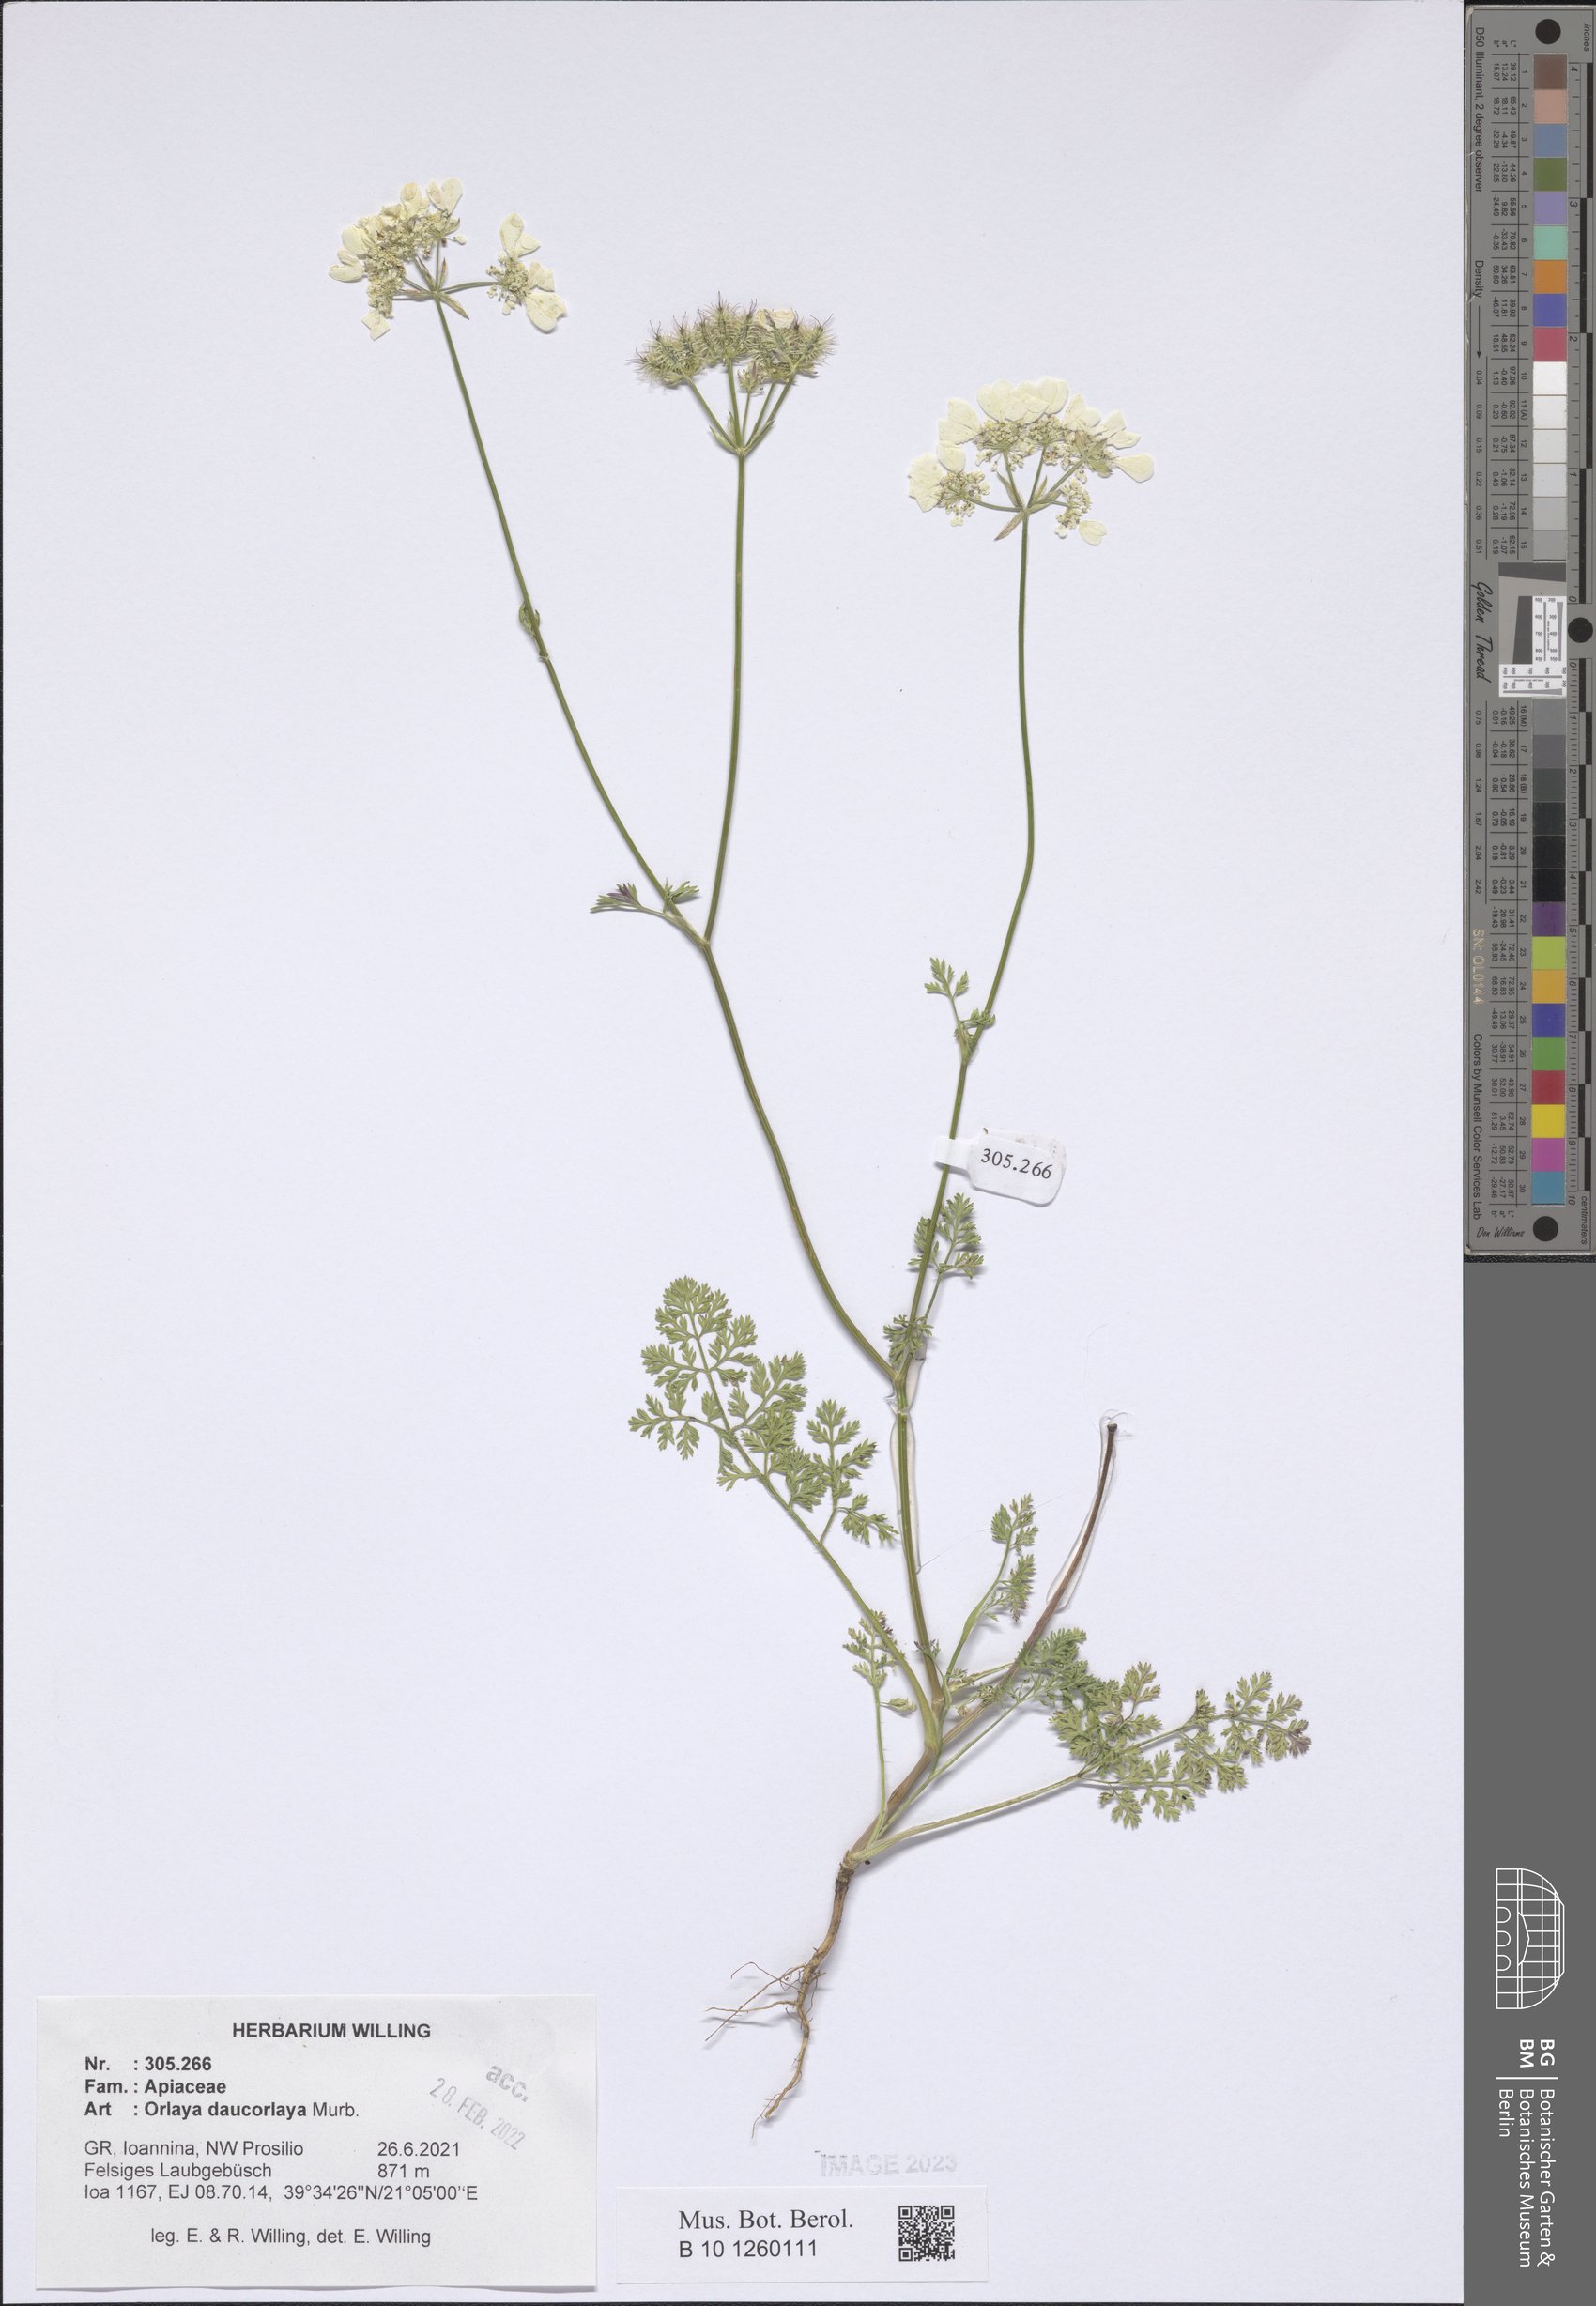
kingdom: Plantae
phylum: Tracheophyta
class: Magnoliopsida
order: Apiales
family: Apiaceae
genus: Orlaya
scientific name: Orlaya daucorlaya
